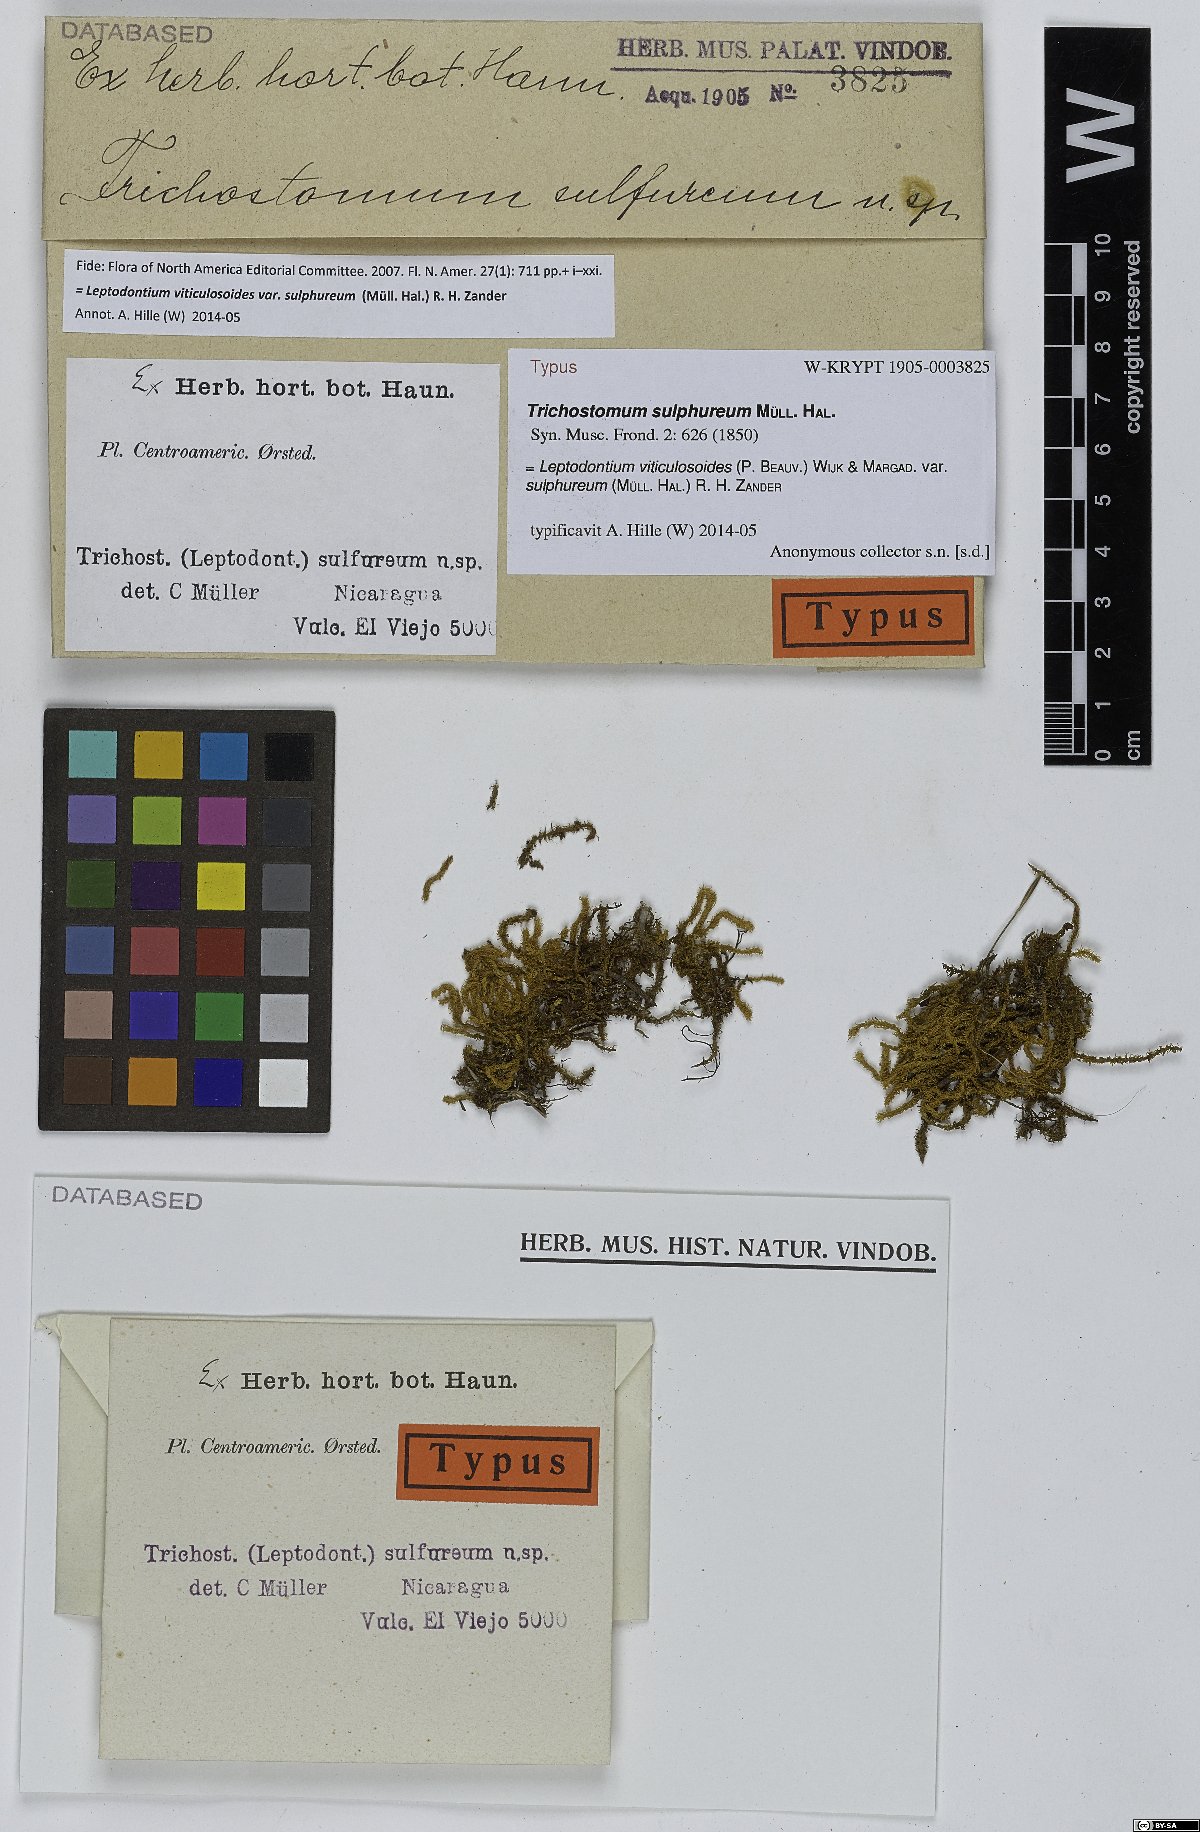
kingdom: Plantae
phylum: Bryophyta
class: Bryopsida
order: Pottiales
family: Pottiaceae
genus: Leptodontium
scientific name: Leptodontium excelsum
